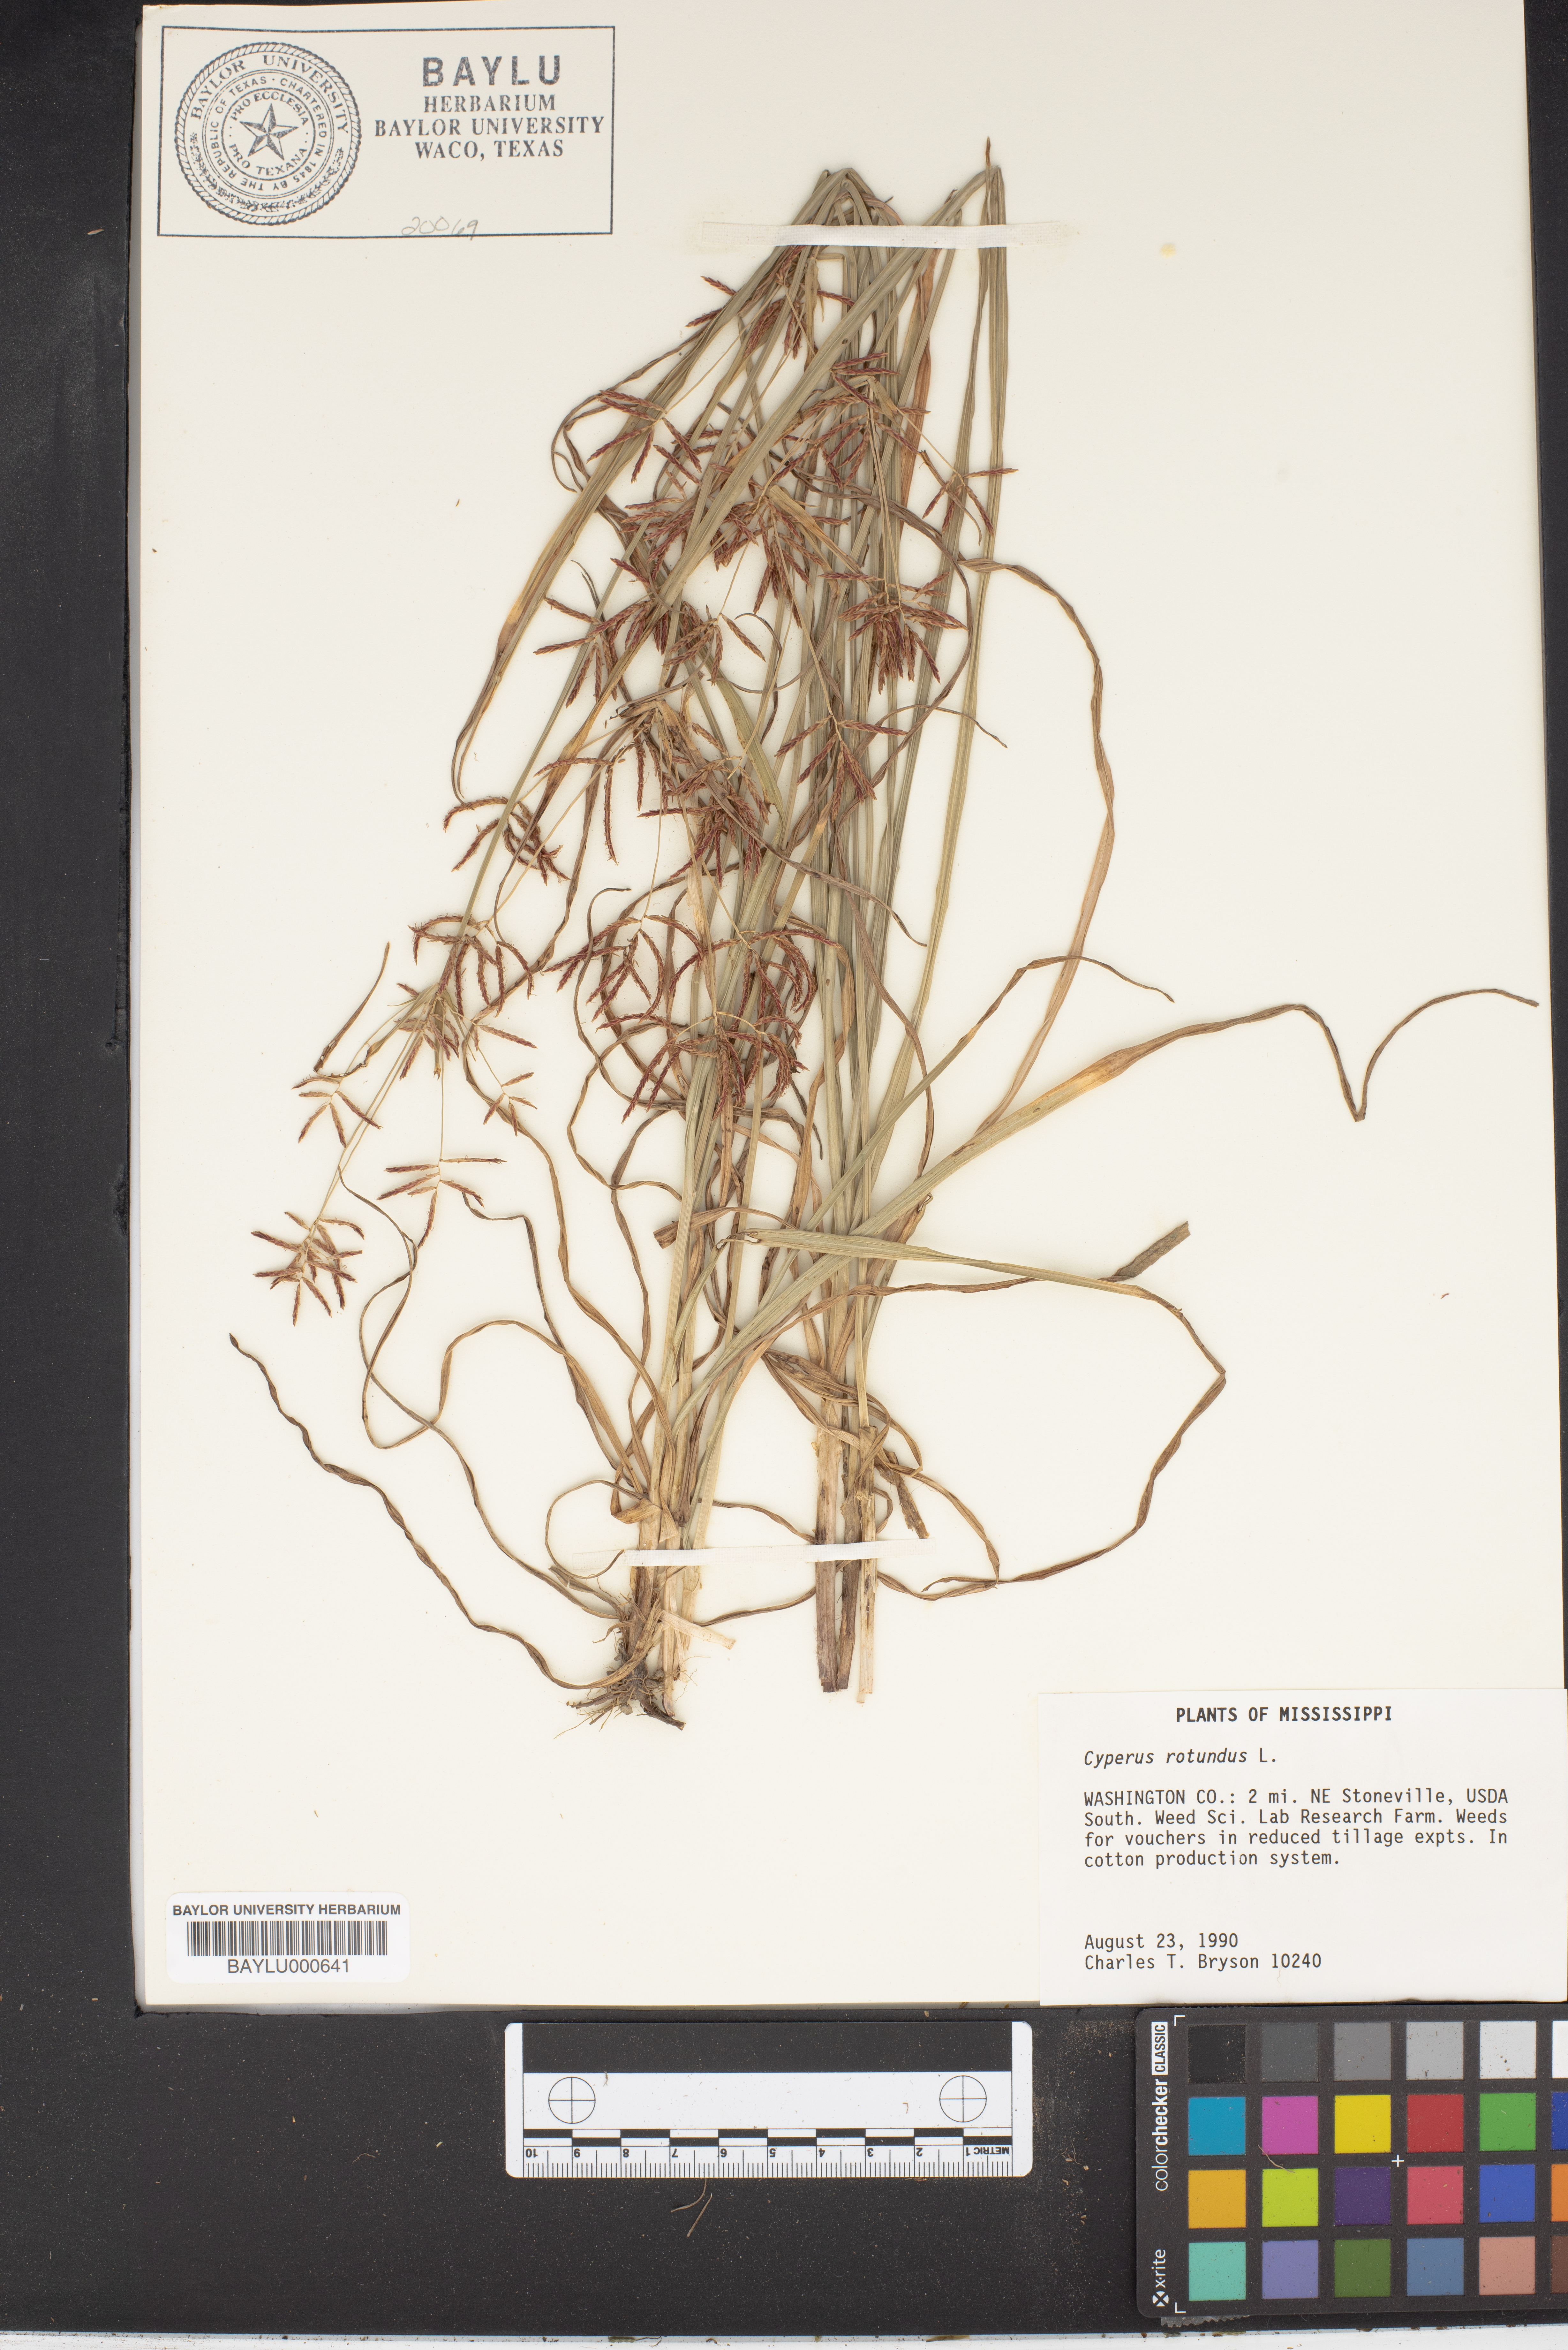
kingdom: Plantae
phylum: Tracheophyta
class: Liliopsida
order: Poales
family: Cyperaceae
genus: Cyperus
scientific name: Cyperus rotundus
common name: Nutgrass
